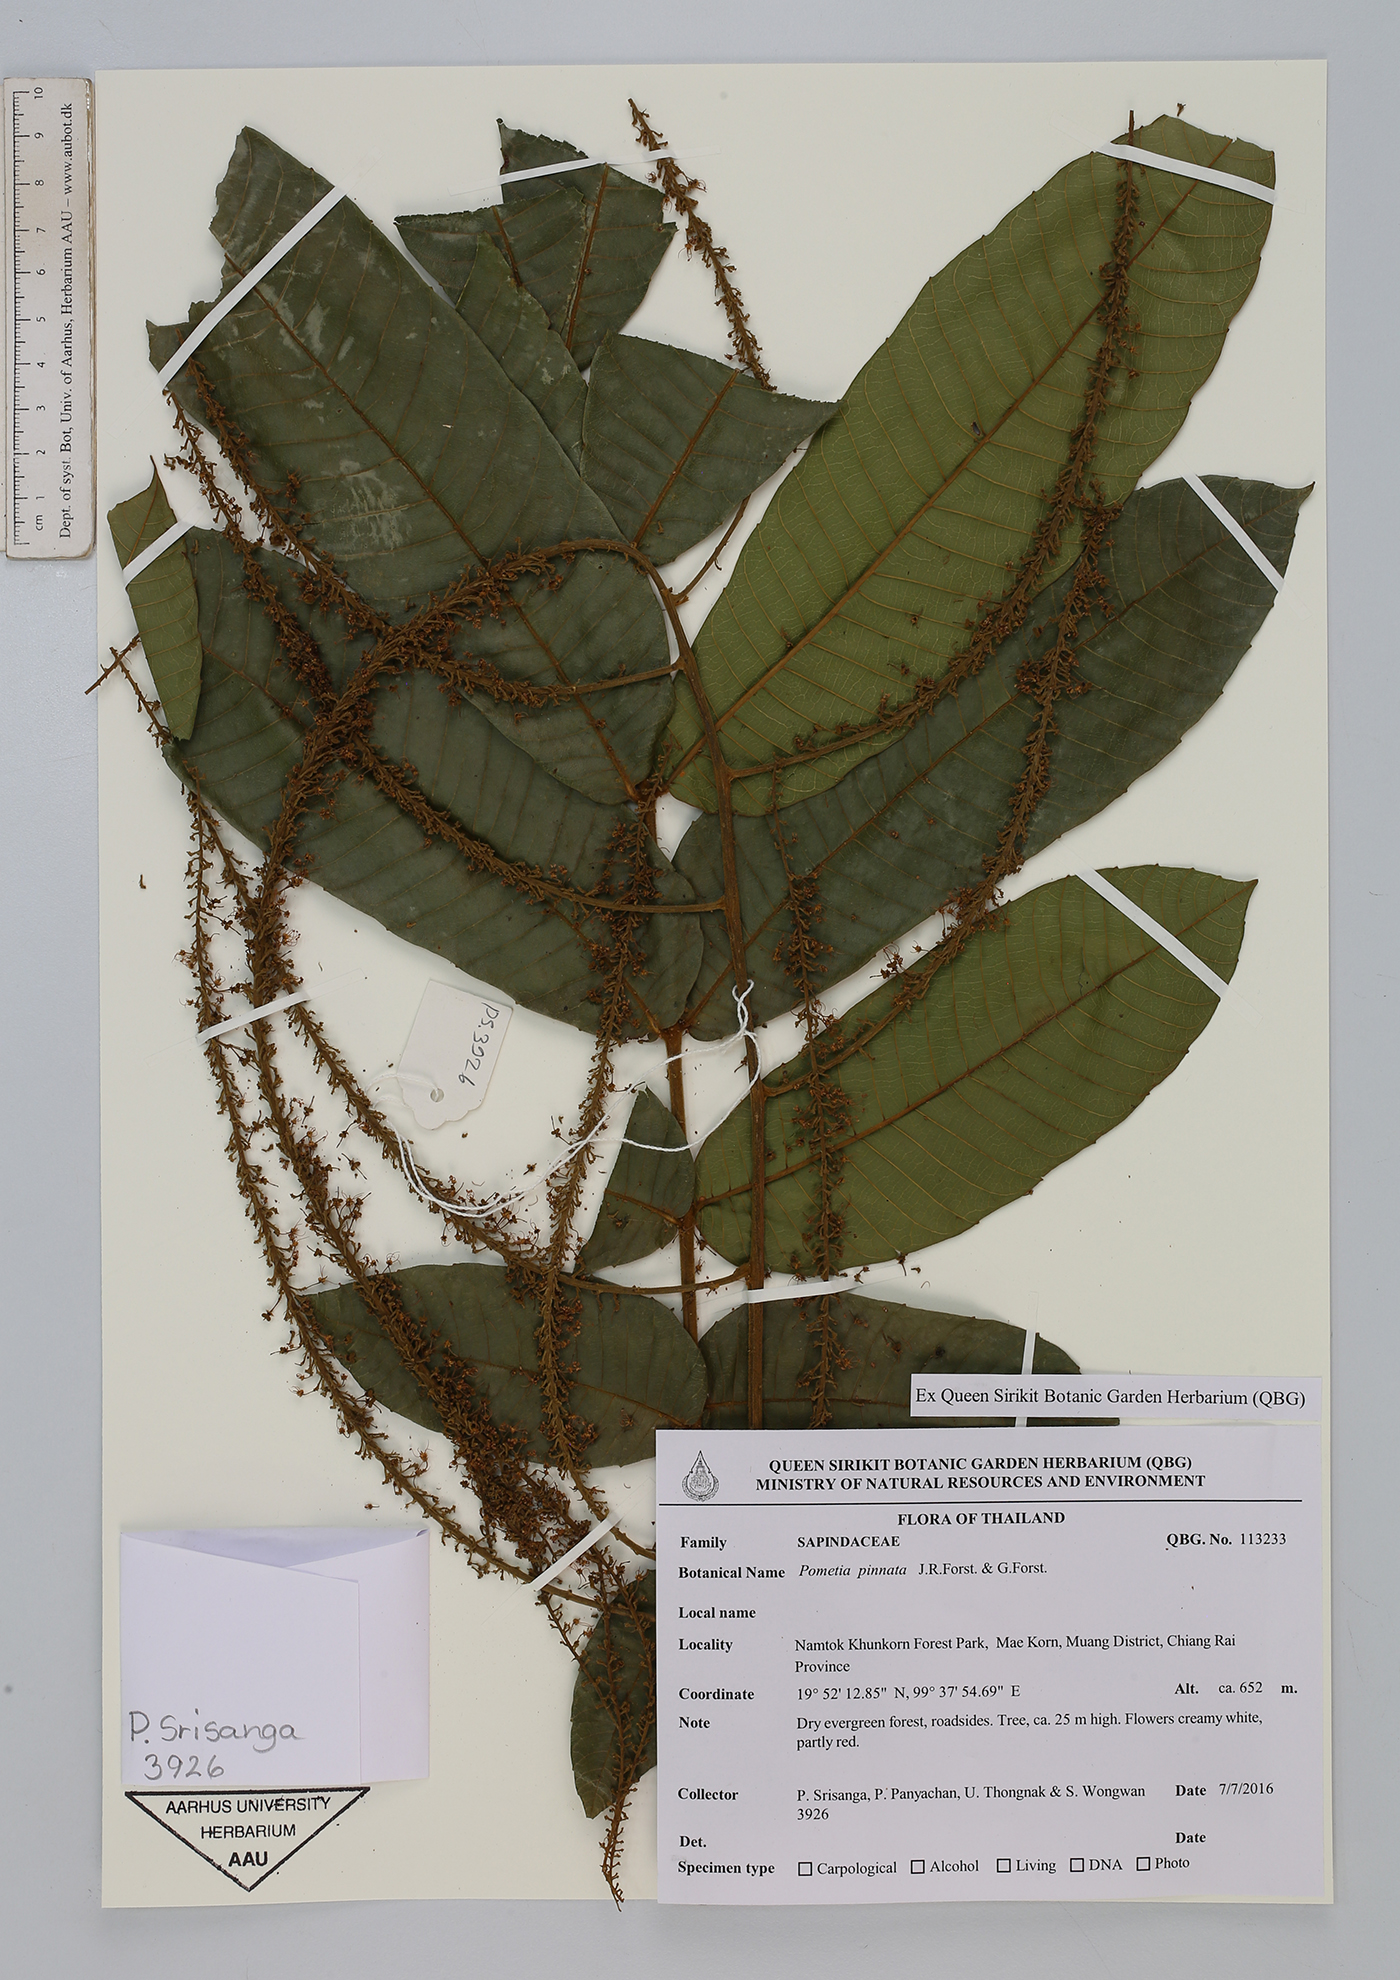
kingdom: Plantae
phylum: Tracheophyta
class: Magnoliopsida
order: Sapindales
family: Sapindaceae
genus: Pometia
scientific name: Pometia pinnata
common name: Oceanic lychee
